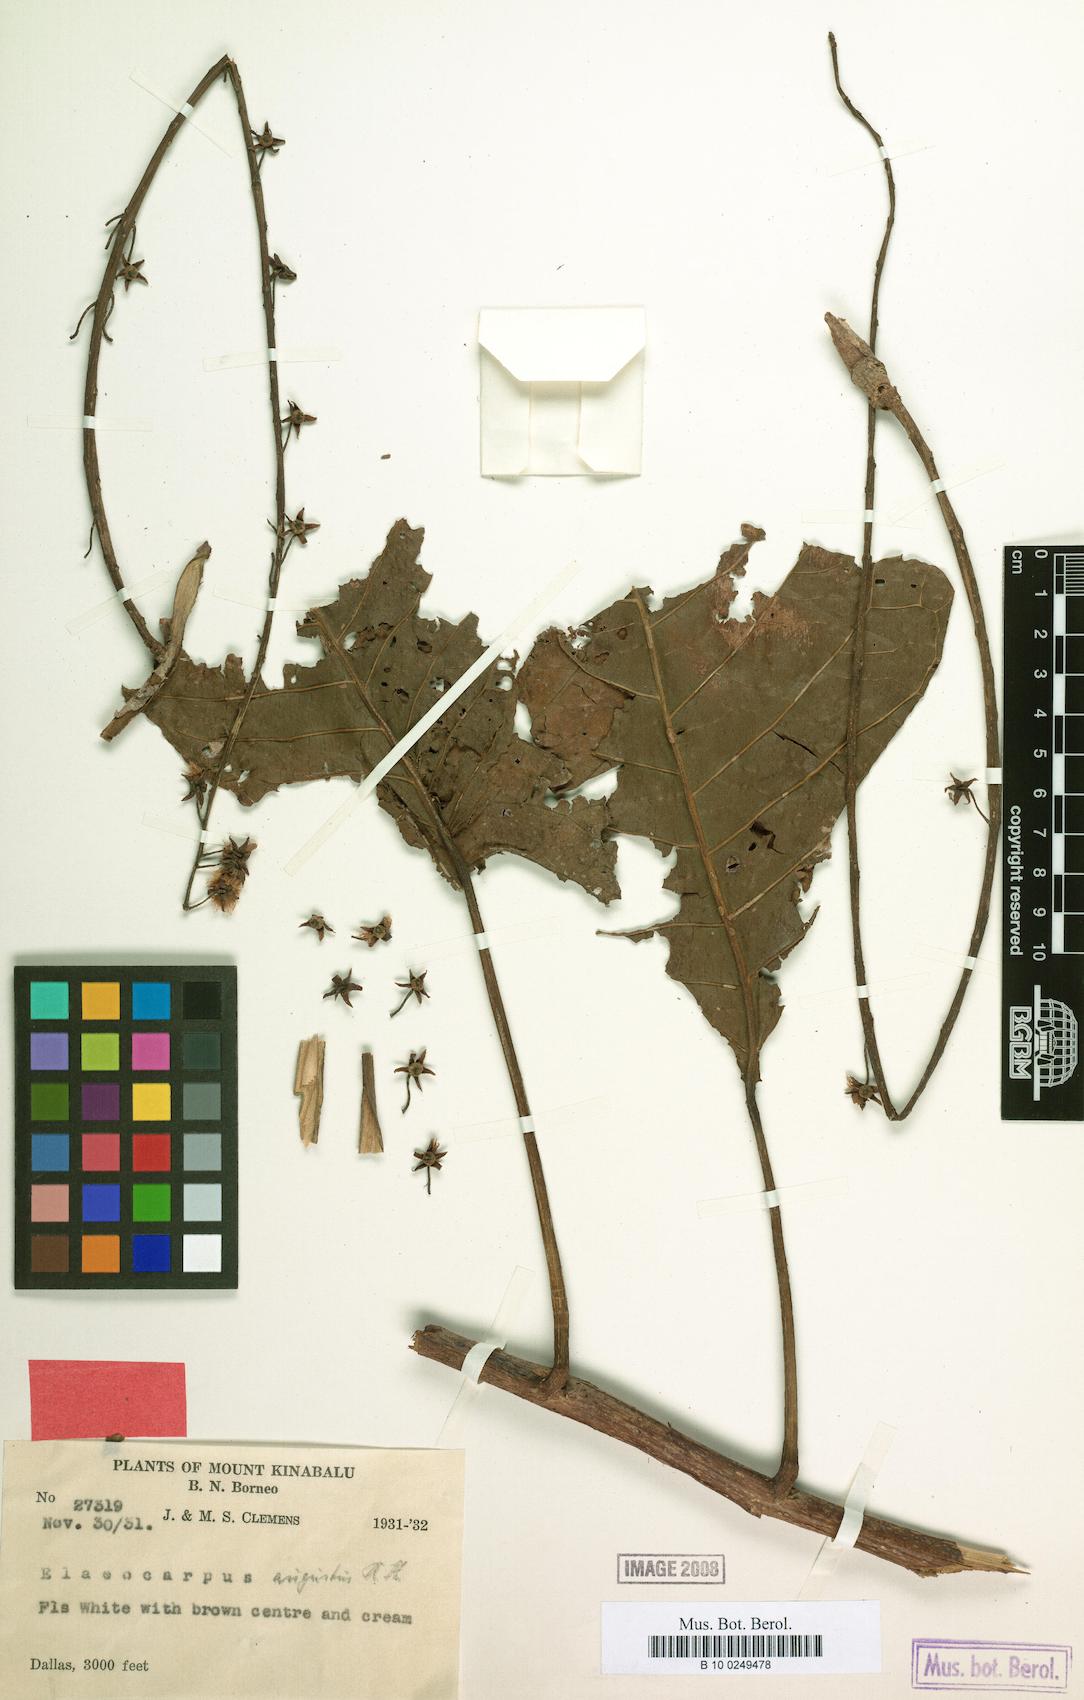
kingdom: Plantae
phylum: Tracheophyta
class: Magnoliopsida
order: Oxalidales
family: Elaeocarpaceae
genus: Elaeocarpus
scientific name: Elaeocarpus dolichobotrys
